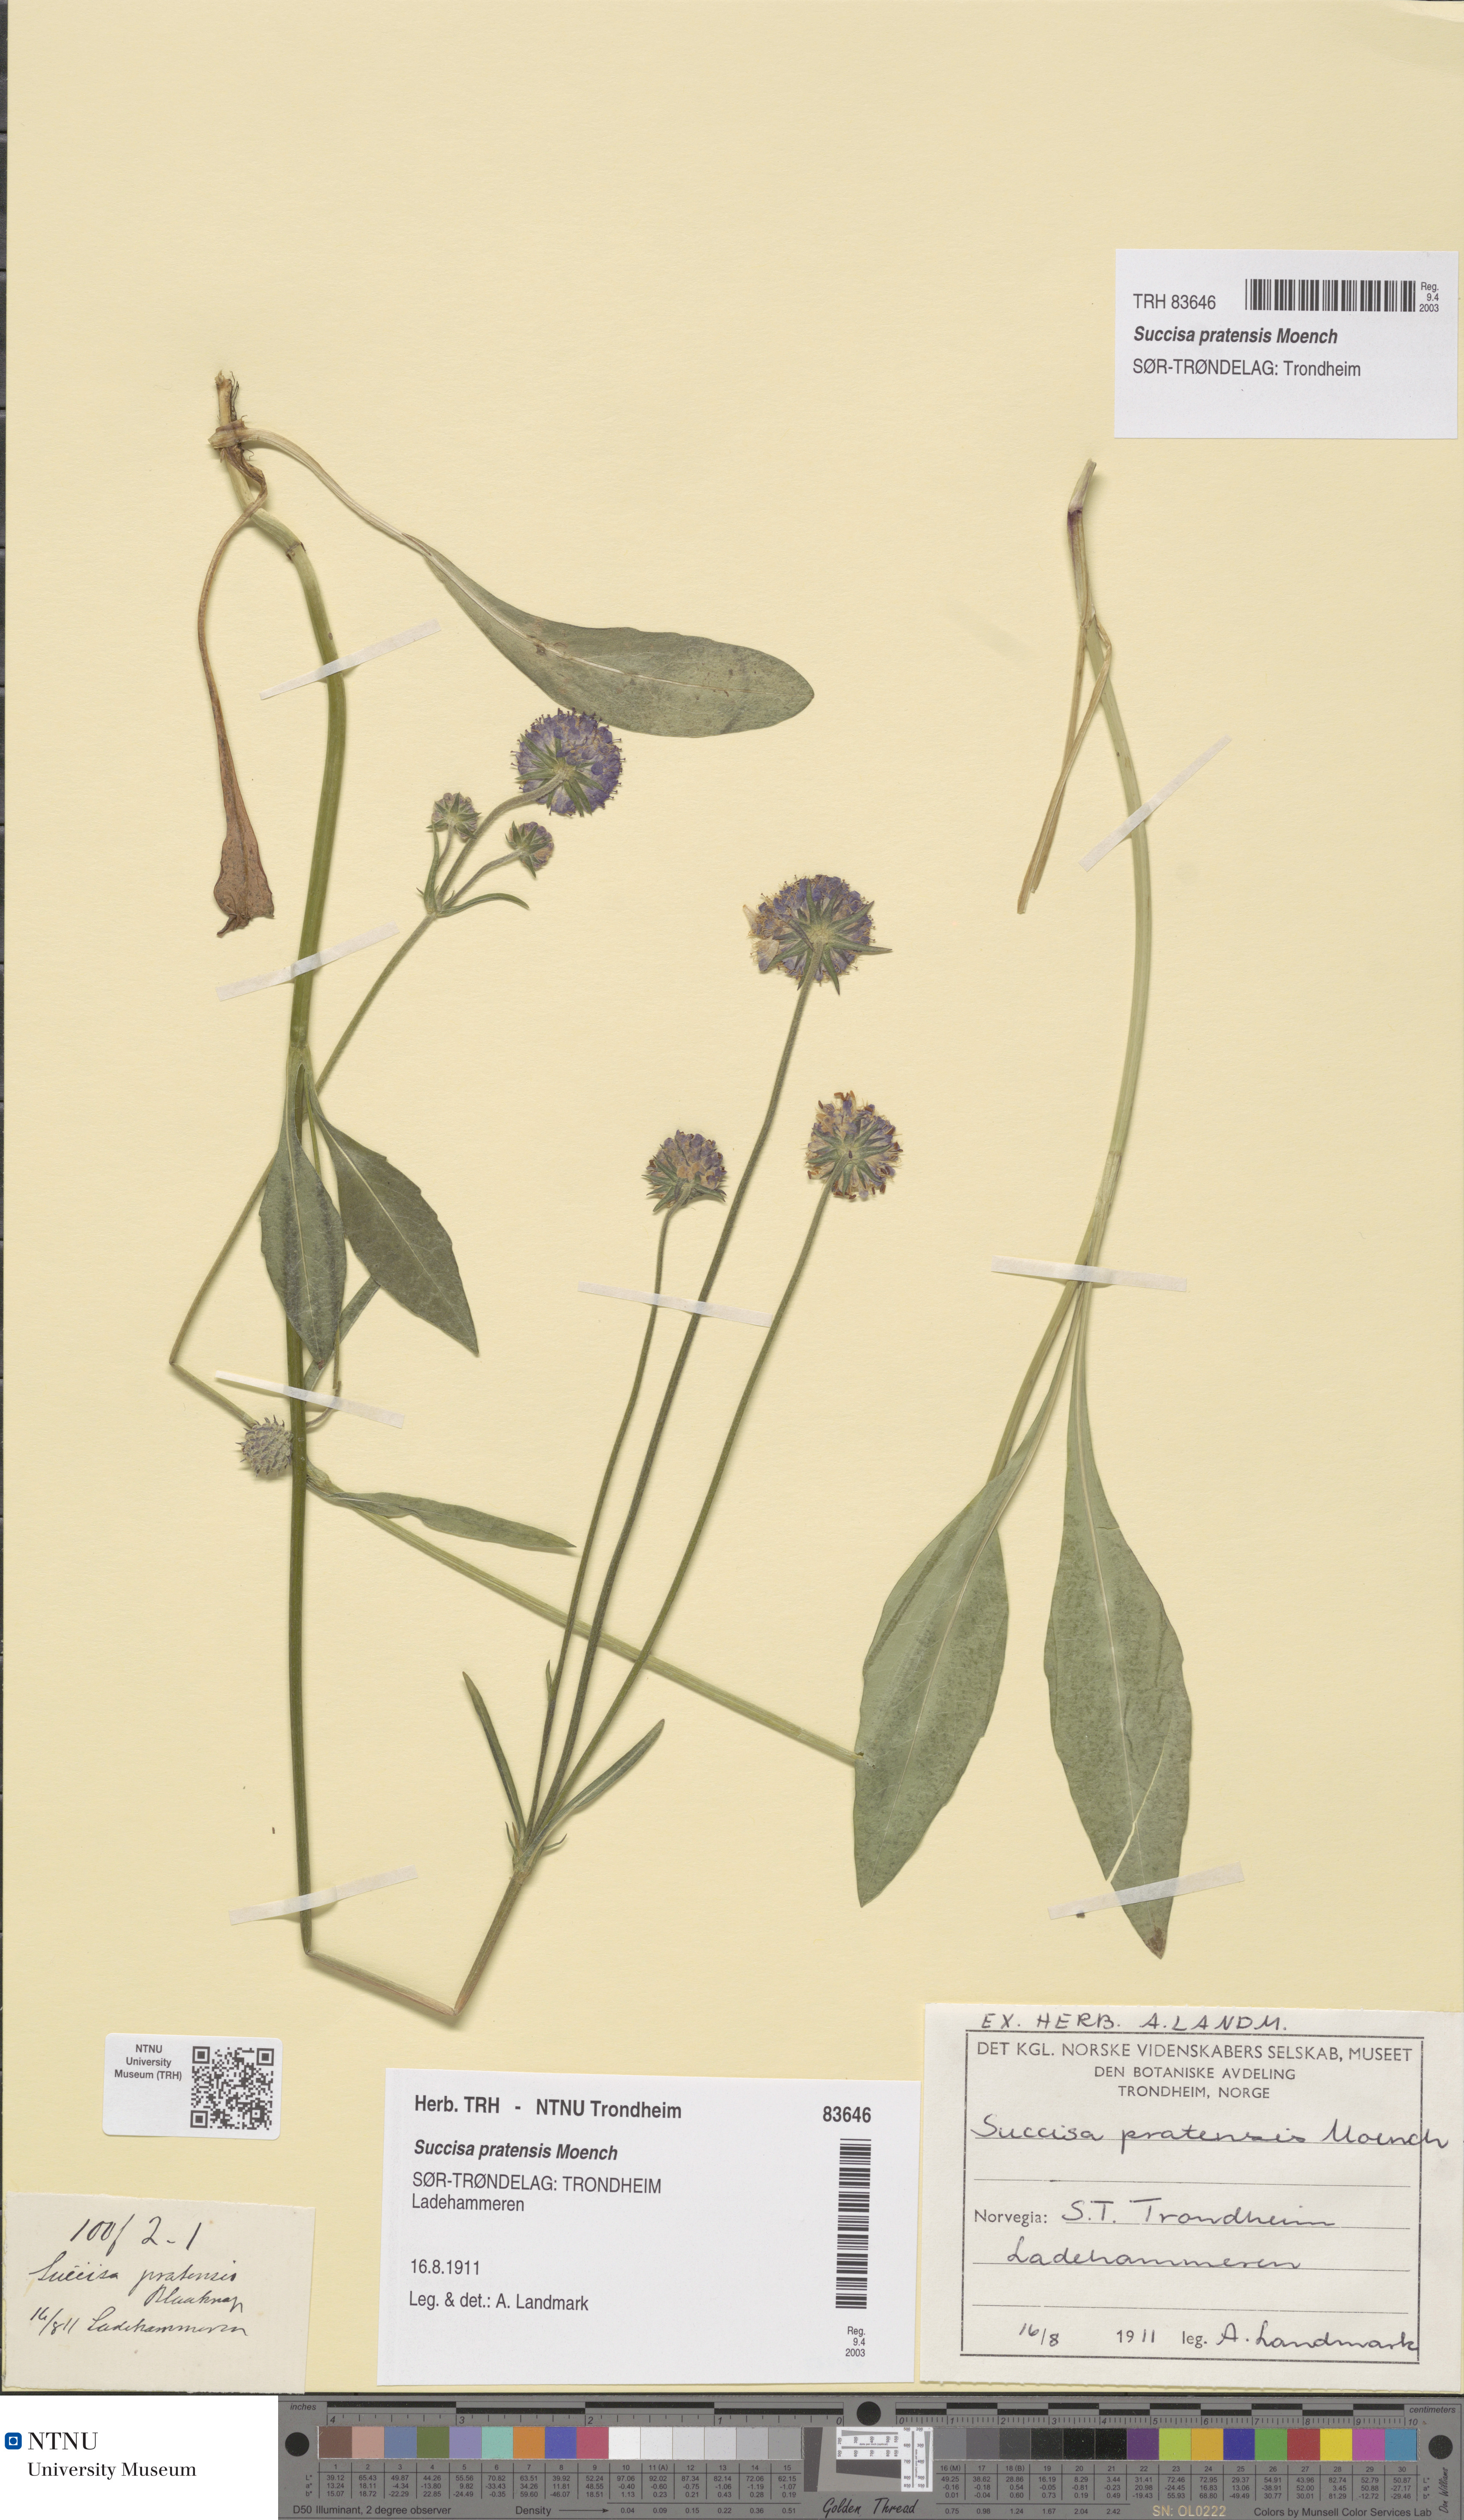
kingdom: Plantae
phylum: Tracheophyta
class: Magnoliopsida
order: Dipsacales
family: Caprifoliaceae
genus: Succisa
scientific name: Succisa pratensis
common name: Devil's-bit
